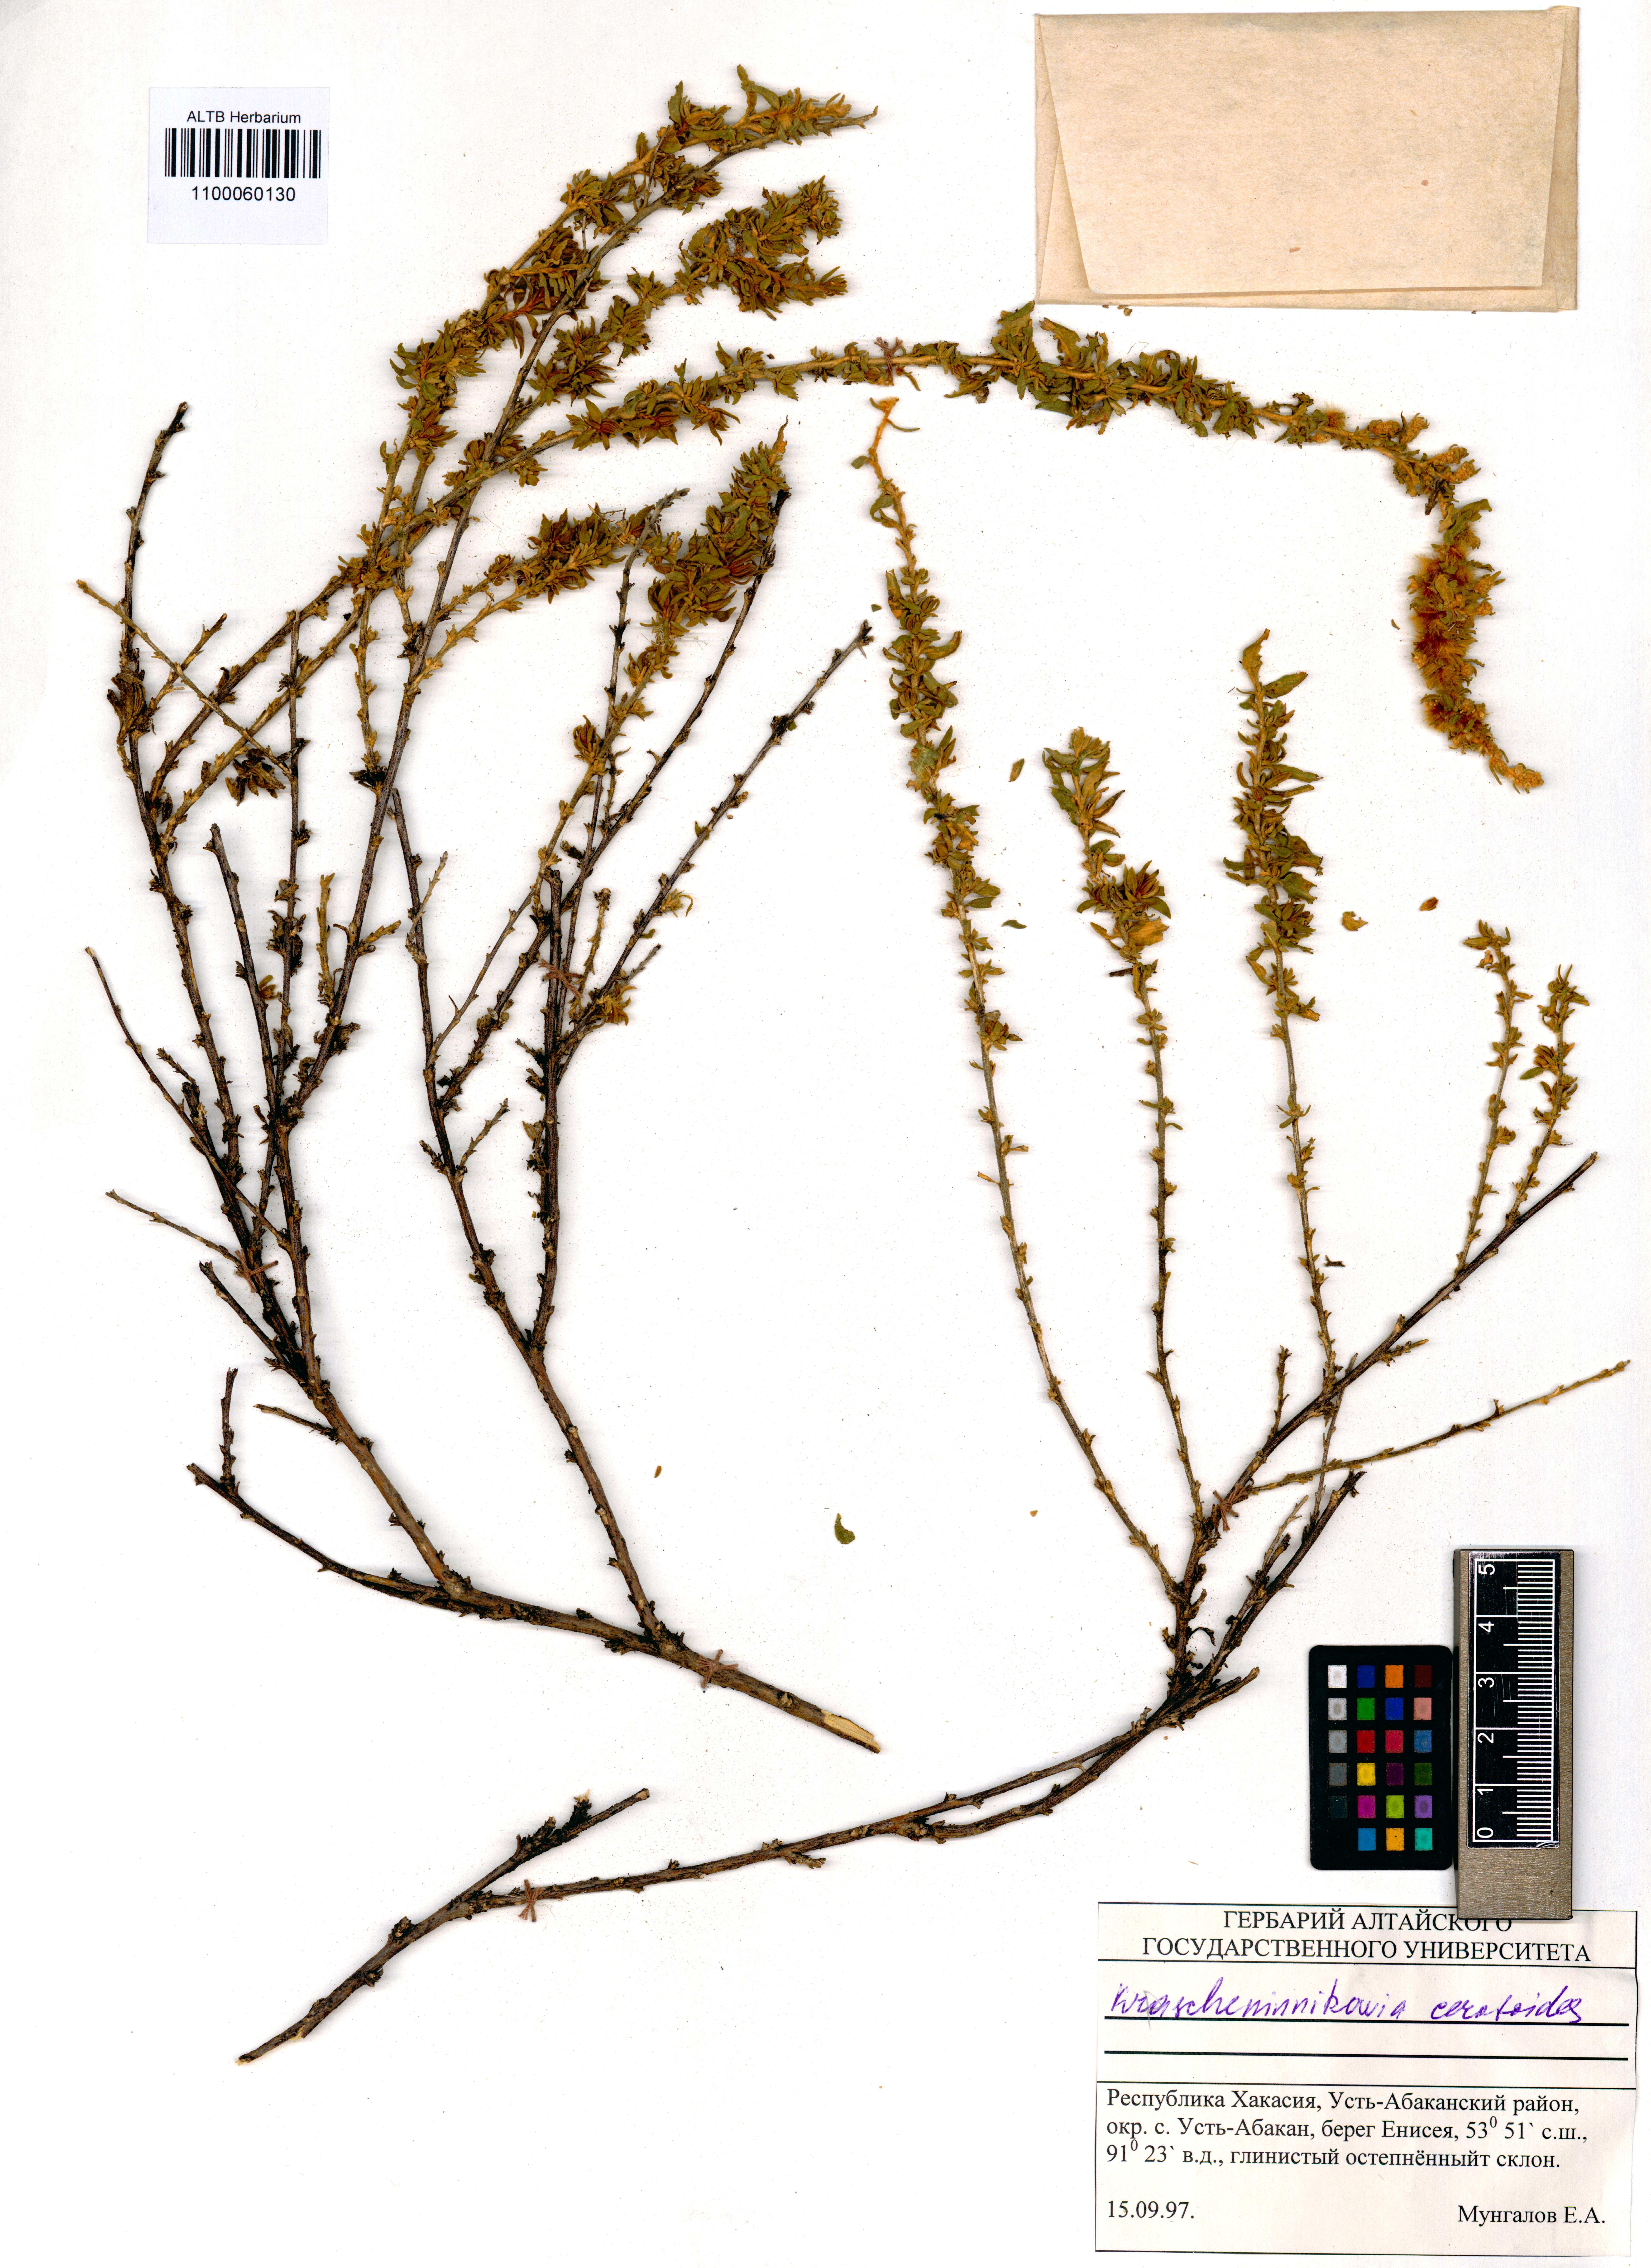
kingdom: Plantae
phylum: Tracheophyta
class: Magnoliopsida
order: Caryophyllales
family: Amaranthaceae
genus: Krascheninnikovia
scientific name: Krascheninnikovia ceratoides
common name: Pamirian winterfat
